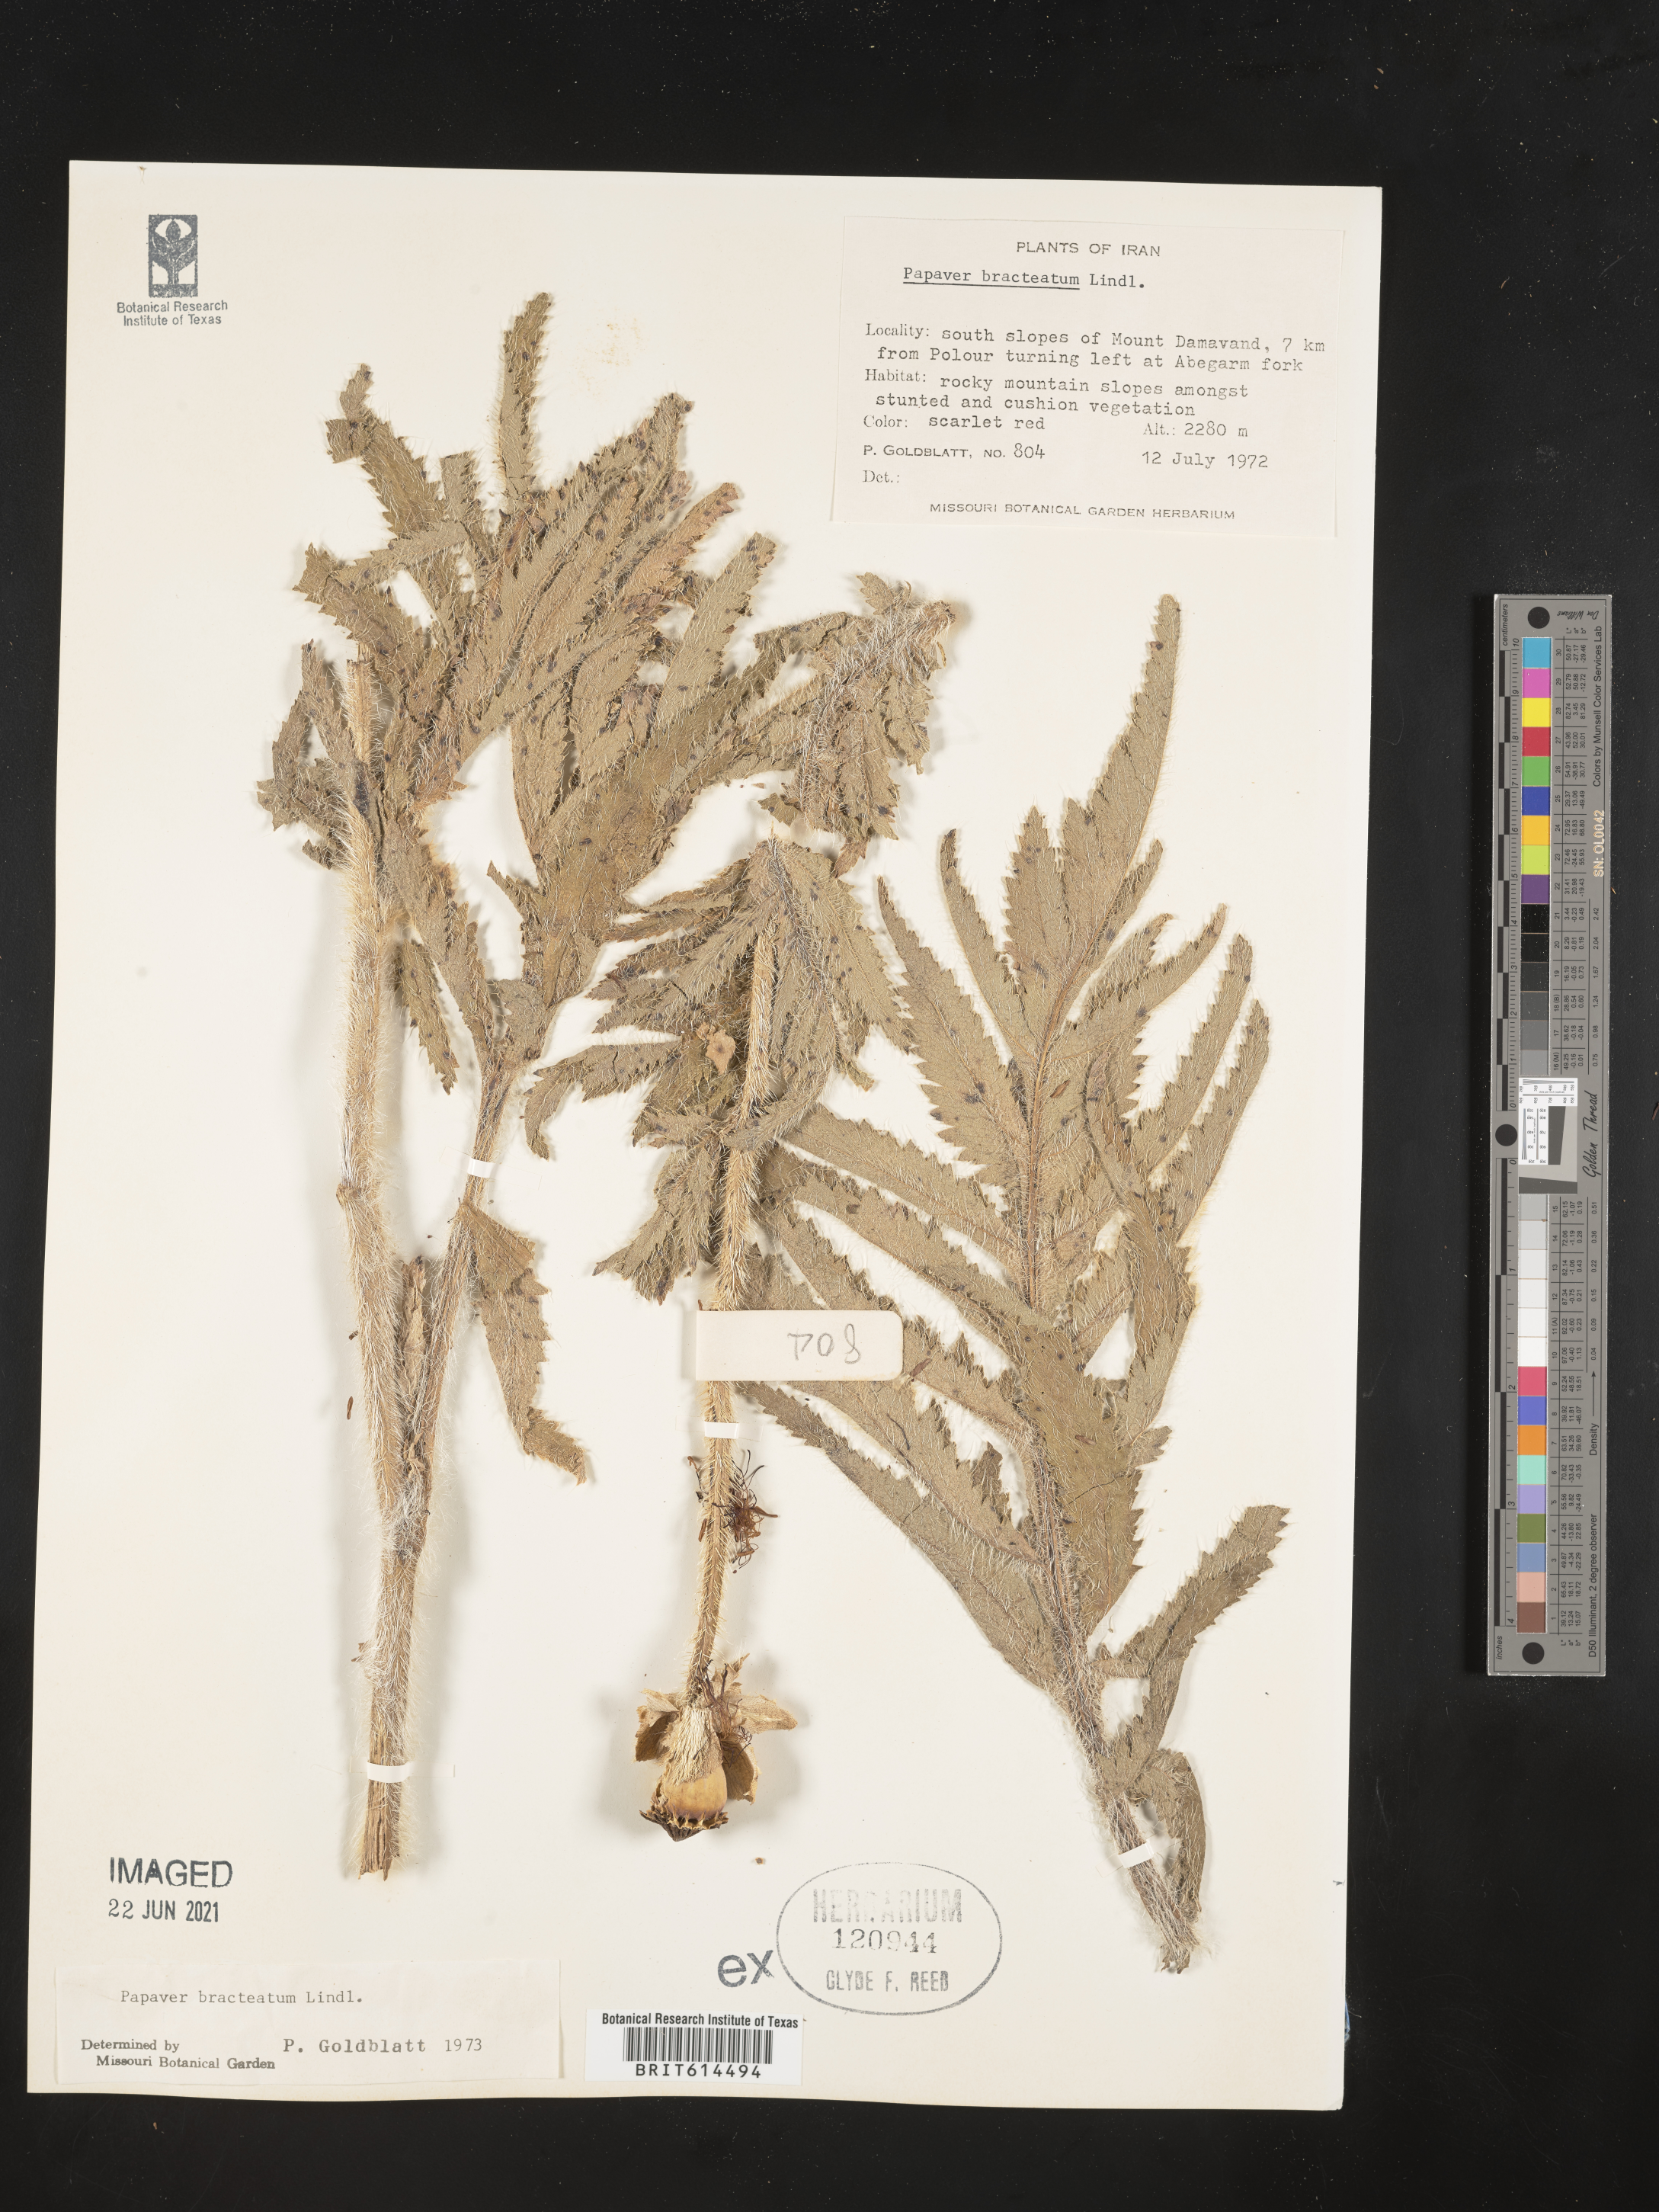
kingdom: Plantae
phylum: Tracheophyta
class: Magnoliopsida
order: Ranunculales
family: Papaveraceae
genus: Papaver
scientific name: Papaver bracteatum
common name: Great scarlet poppy
